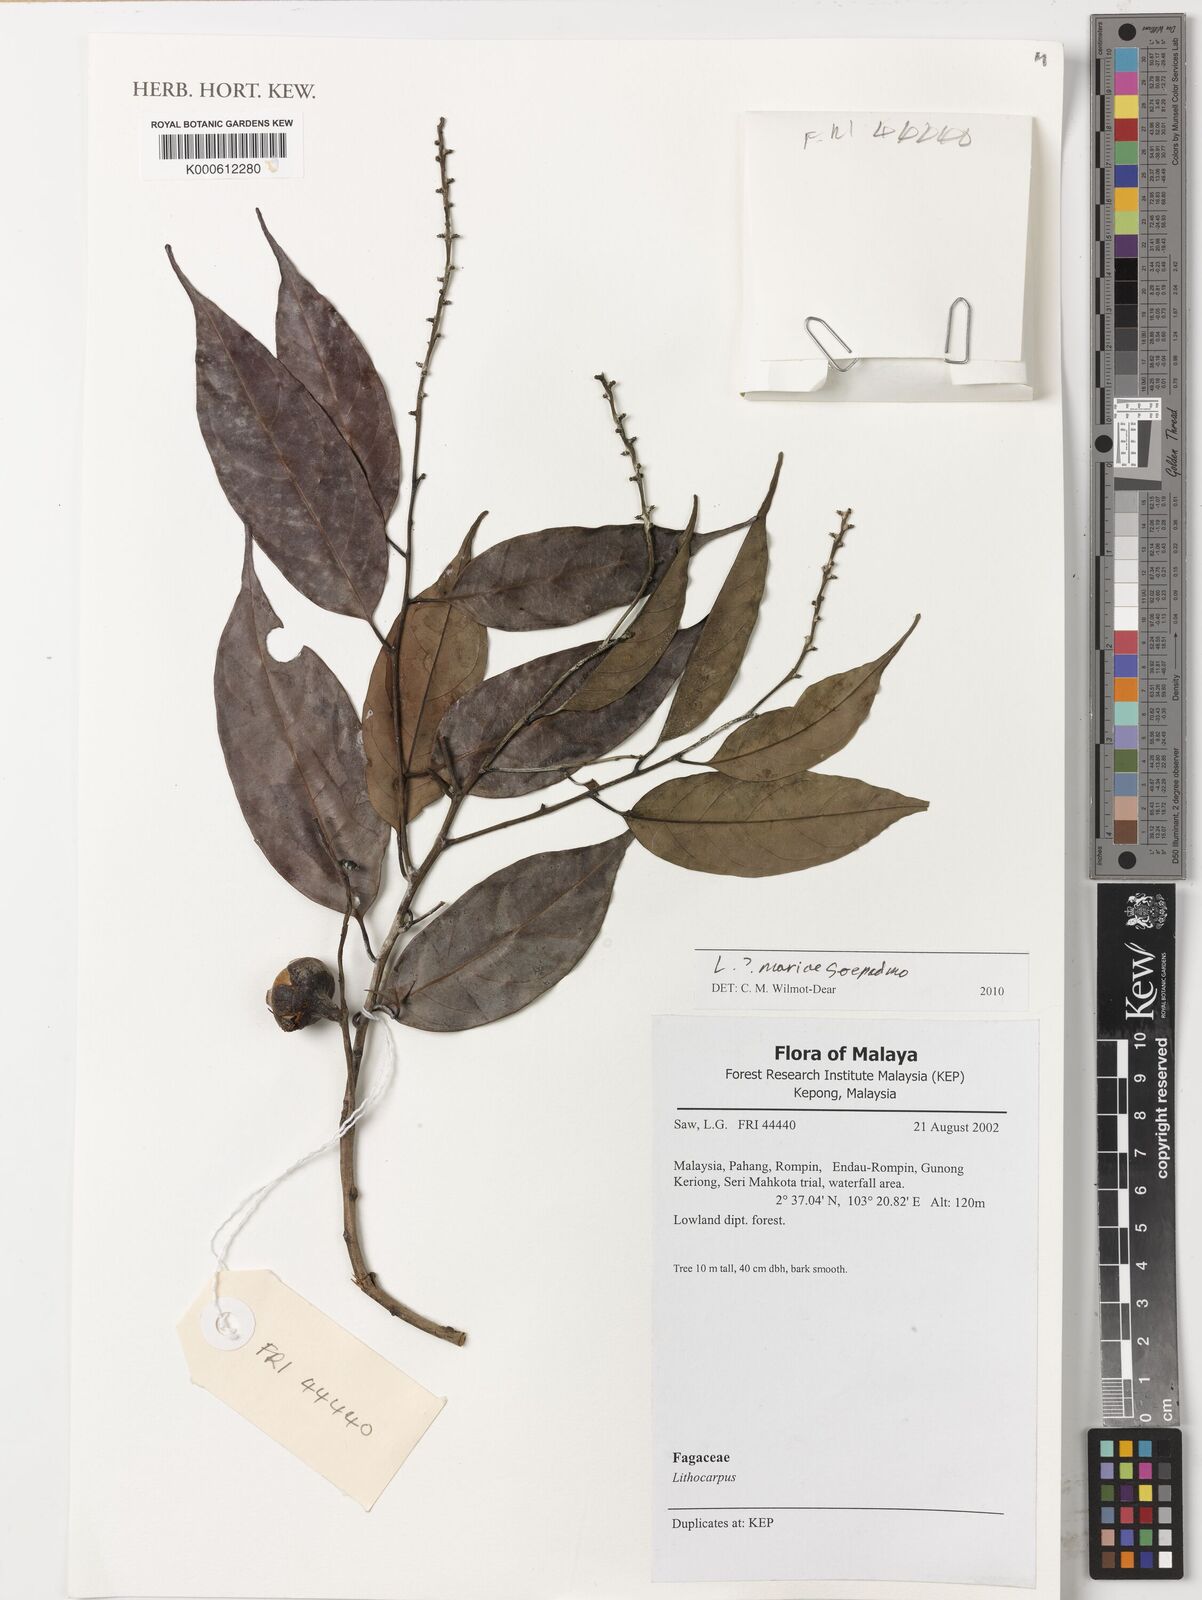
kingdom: Plantae
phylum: Tracheophyta
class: Magnoliopsida
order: Fagales
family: Fagaceae
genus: Lithocarpus
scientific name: Lithocarpus mariae
